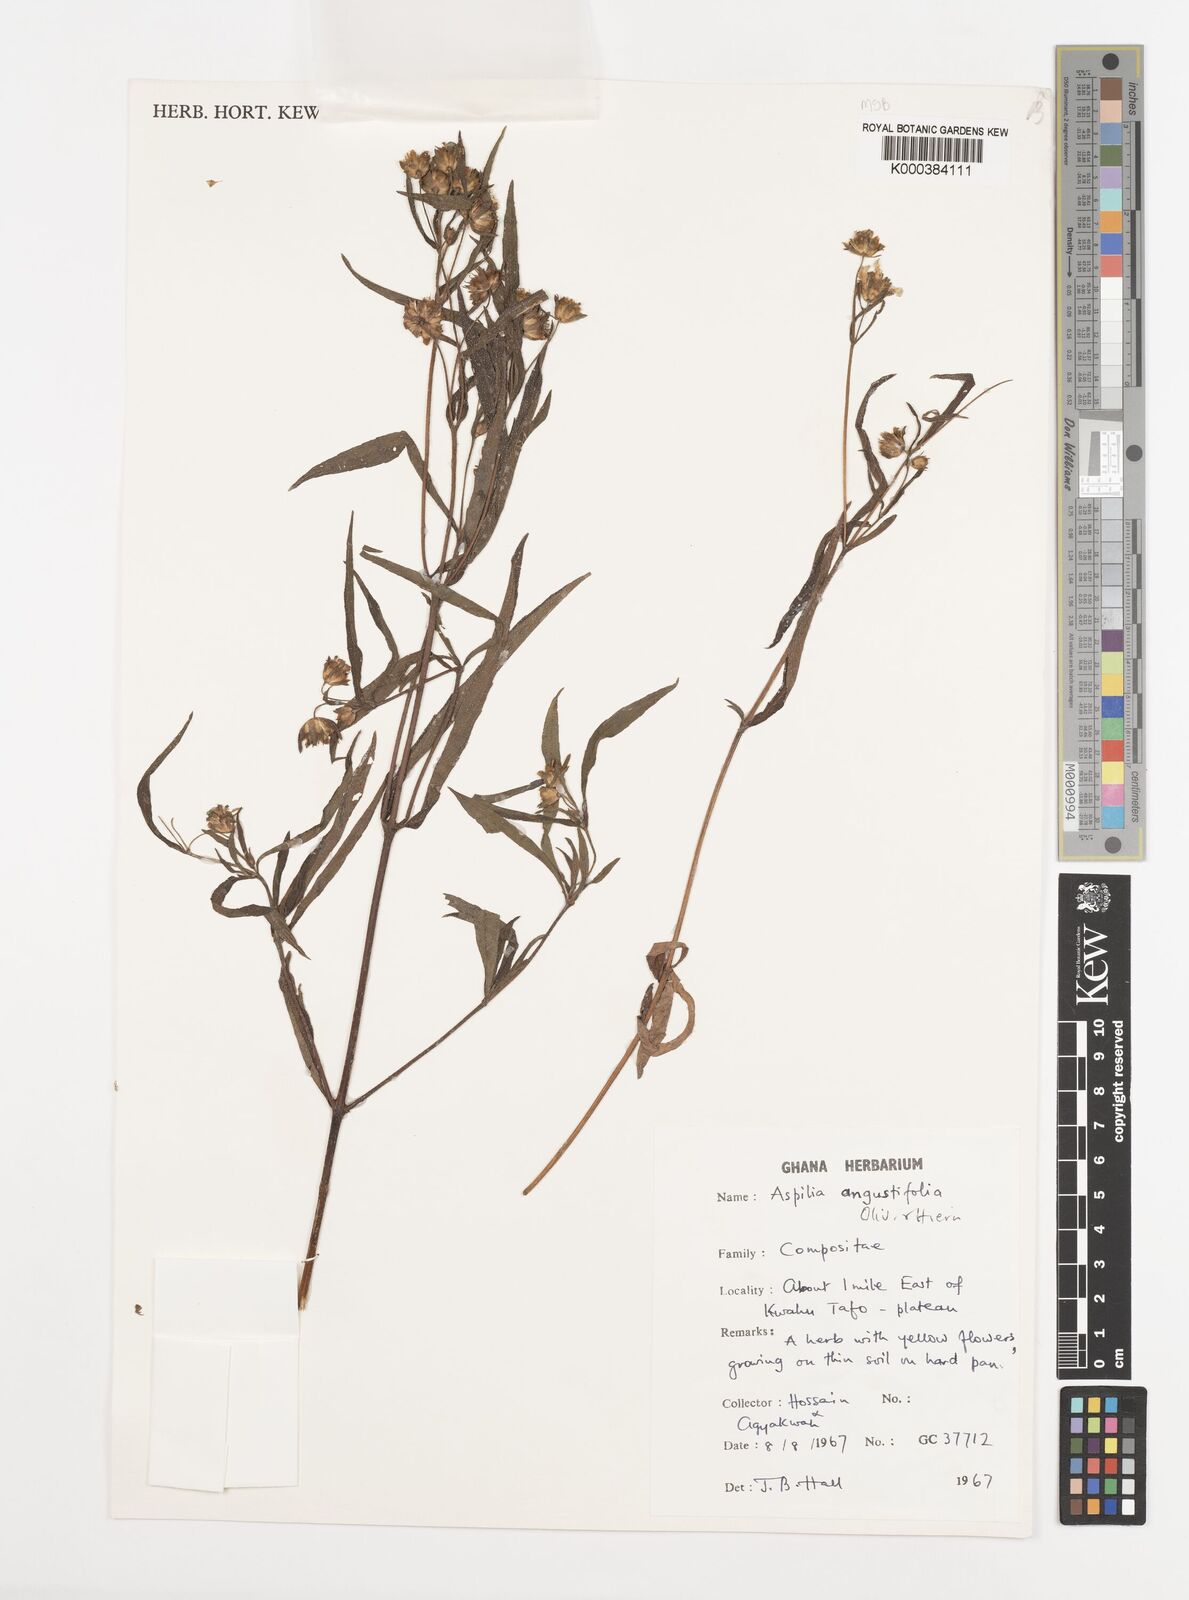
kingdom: Plantae
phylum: Tracheophyta
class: Magnoliopsida
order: Asterales
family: Asteraceae
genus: Aspilia
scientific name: Aspilia angustifolia
